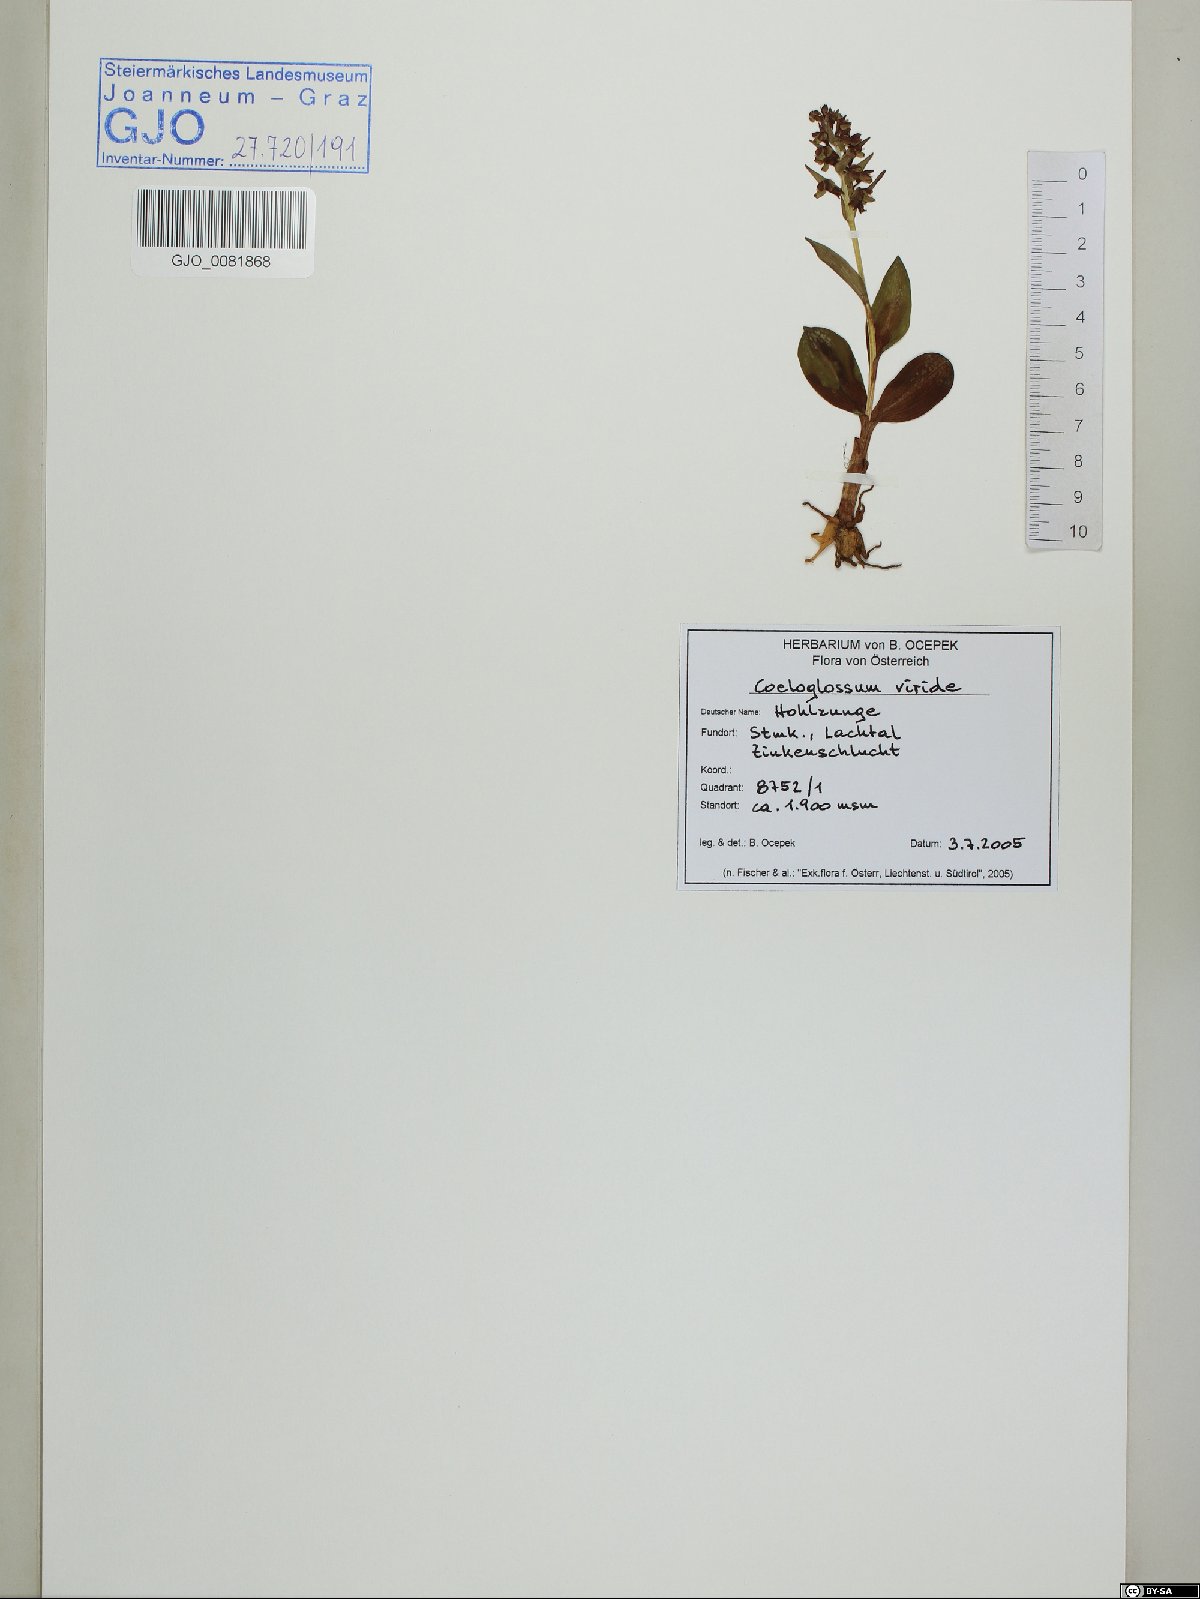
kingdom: Plantae
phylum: Tracheophyta
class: Liliopsida
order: Asparagales
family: Orchidaceae
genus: Dactylorhiza
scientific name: Dactylorhiza viridis
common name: Longbract frog orchid
